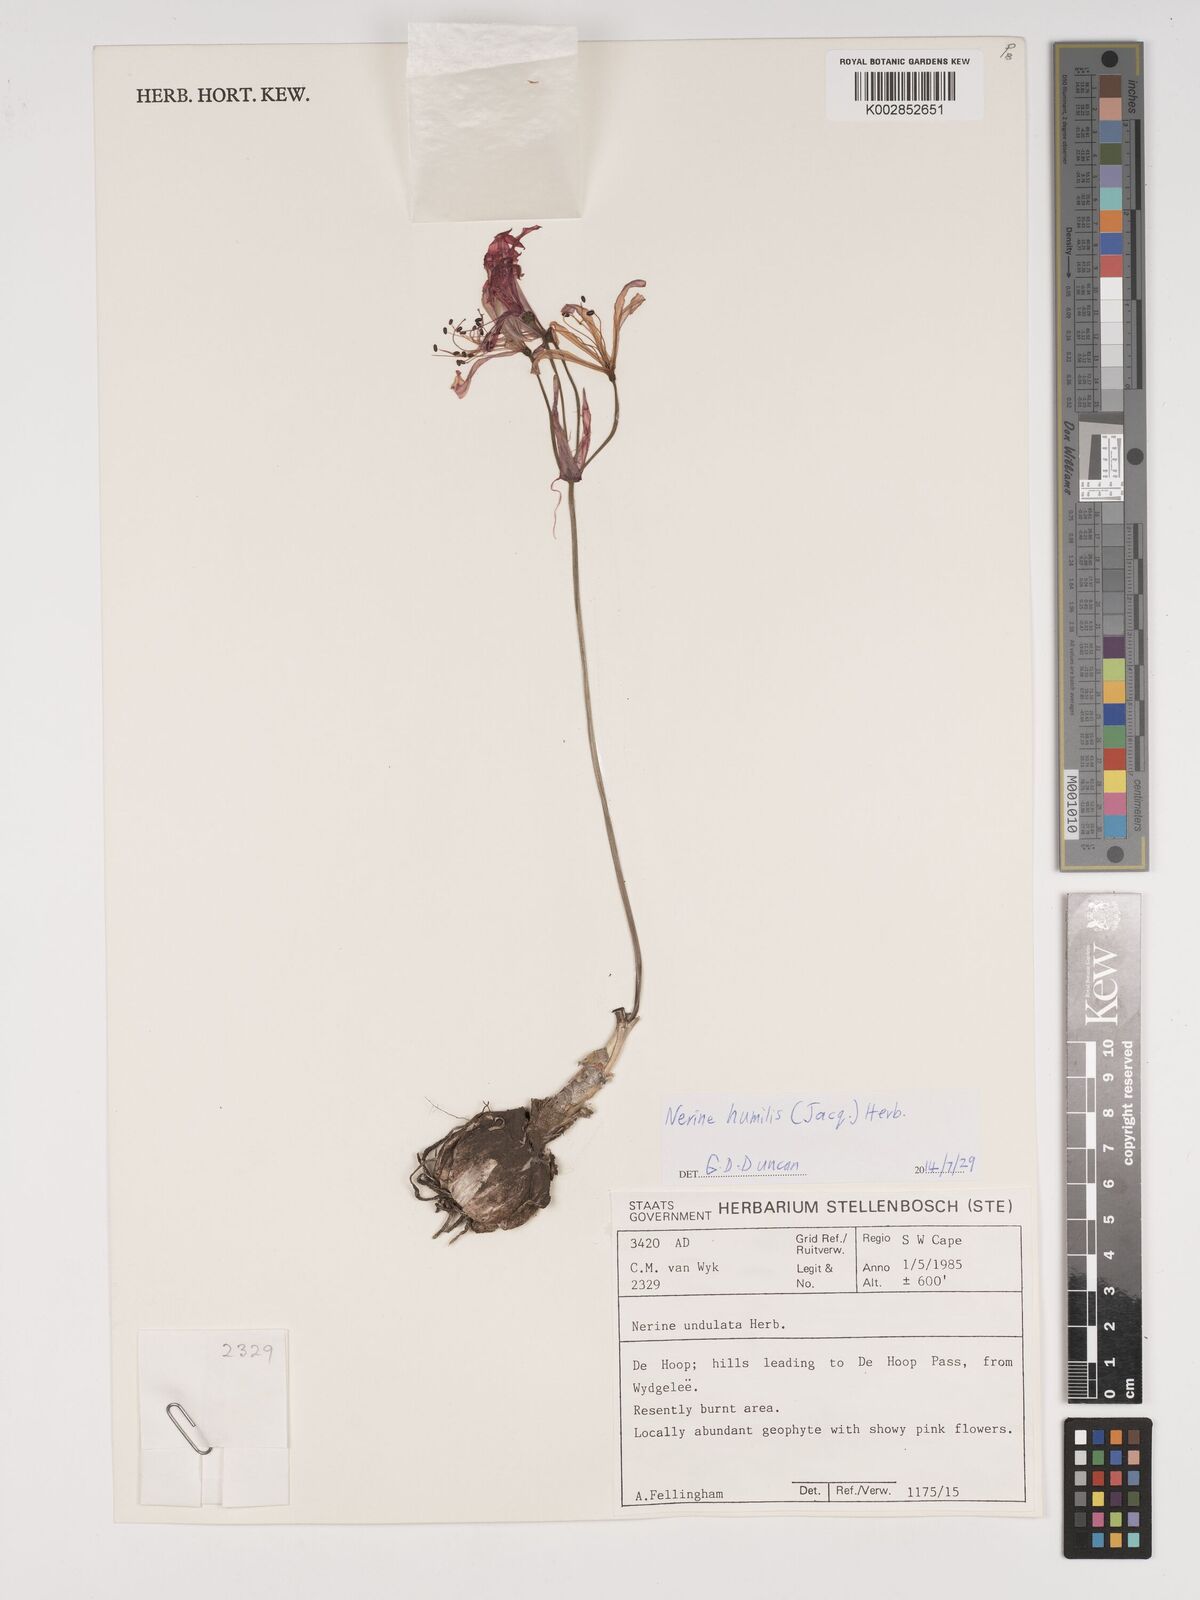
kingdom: Plantae
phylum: Tracheophyta
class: Liliopsida
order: Asparagales
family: Amaryllidaceae
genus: Nerine
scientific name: Nerine humilis
